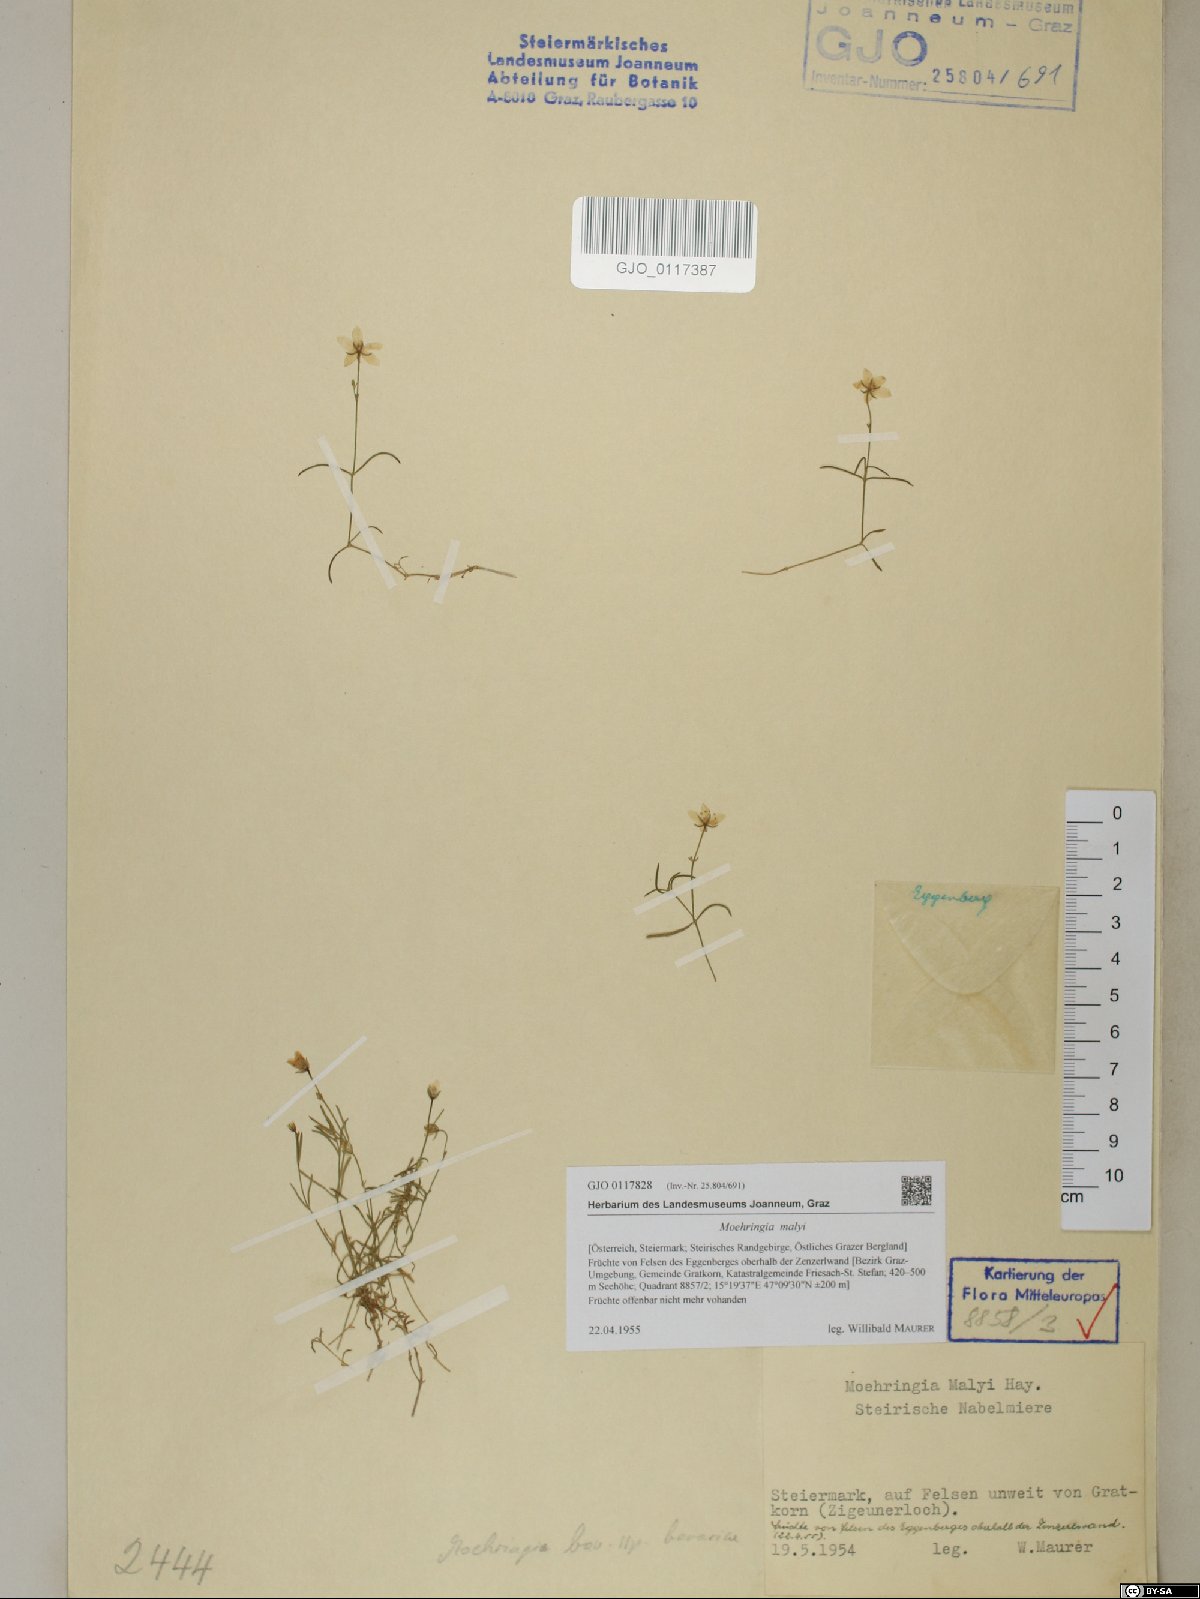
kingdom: Plantae
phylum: Tracheophyta
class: Magnoliopsida
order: Caryophyllales
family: Caryophyllaceae
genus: Moehringia
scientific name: Moehringia bavarica
